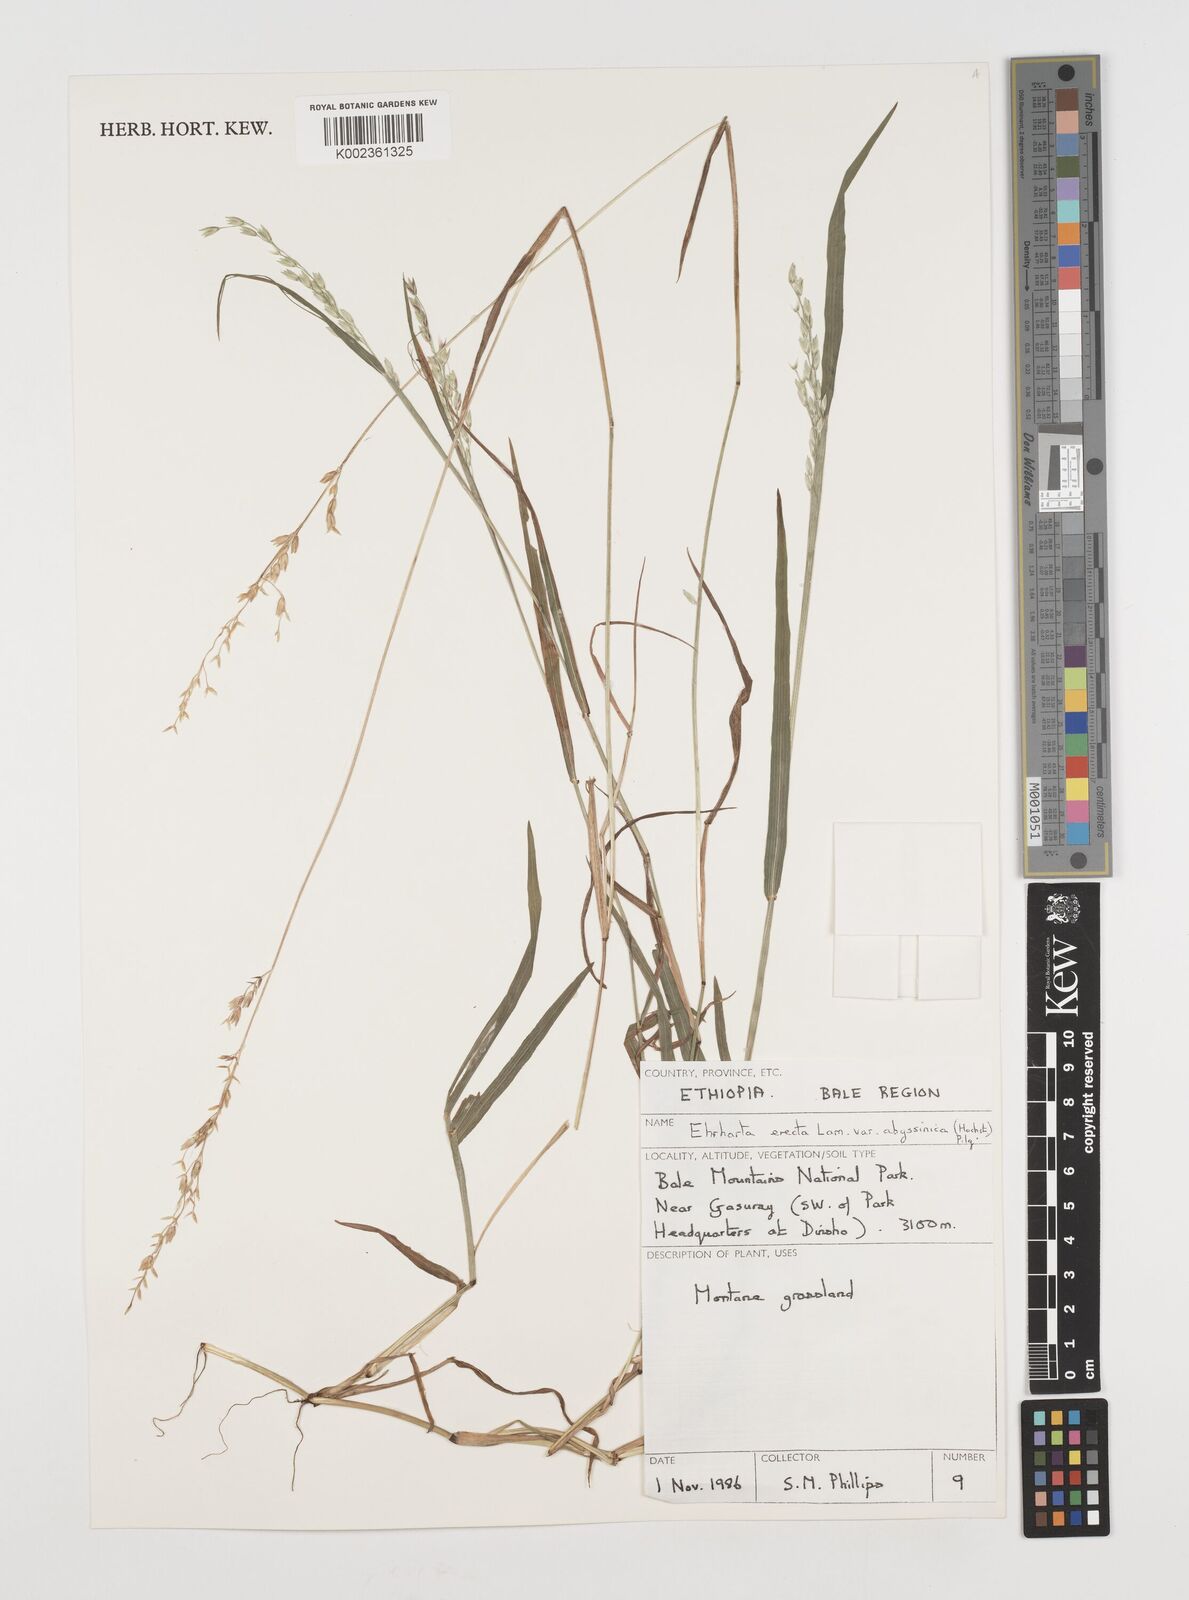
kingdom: Plantae
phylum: Tracheophyta
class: Liliopsida
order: Poales
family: Poaceae
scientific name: Poaceae
